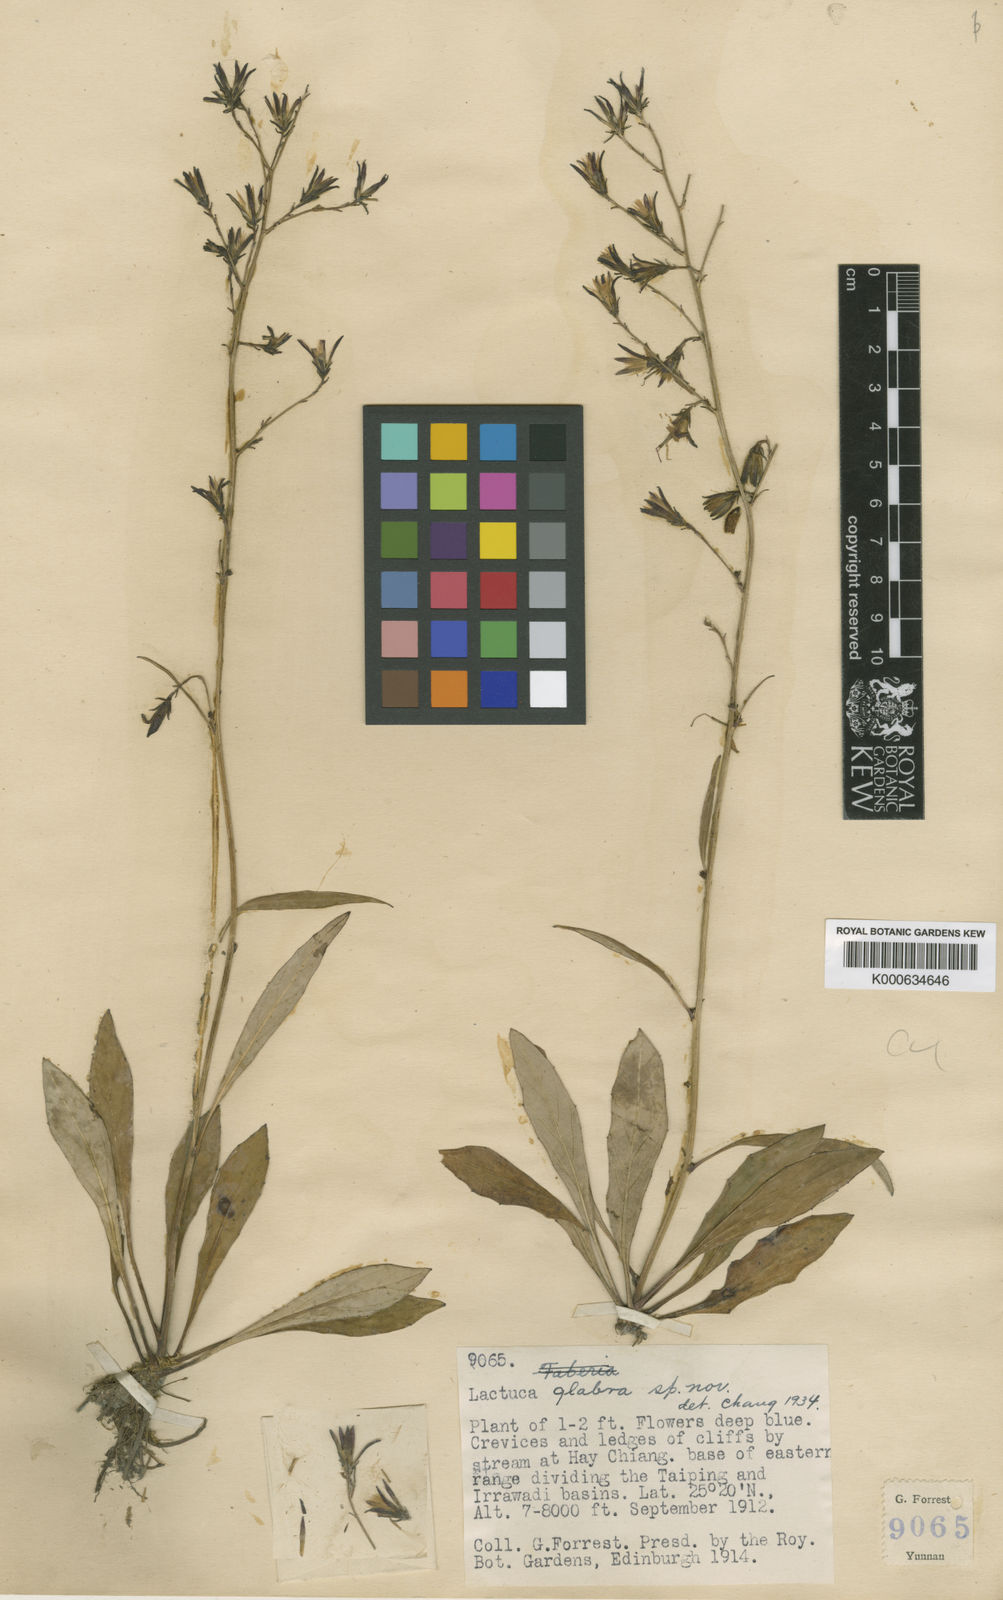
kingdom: Plantae
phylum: Tracheophyta
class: Magnoliopsida
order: Asterales
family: Asteraceae
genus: Faberia
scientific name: Faberia lancifolia
